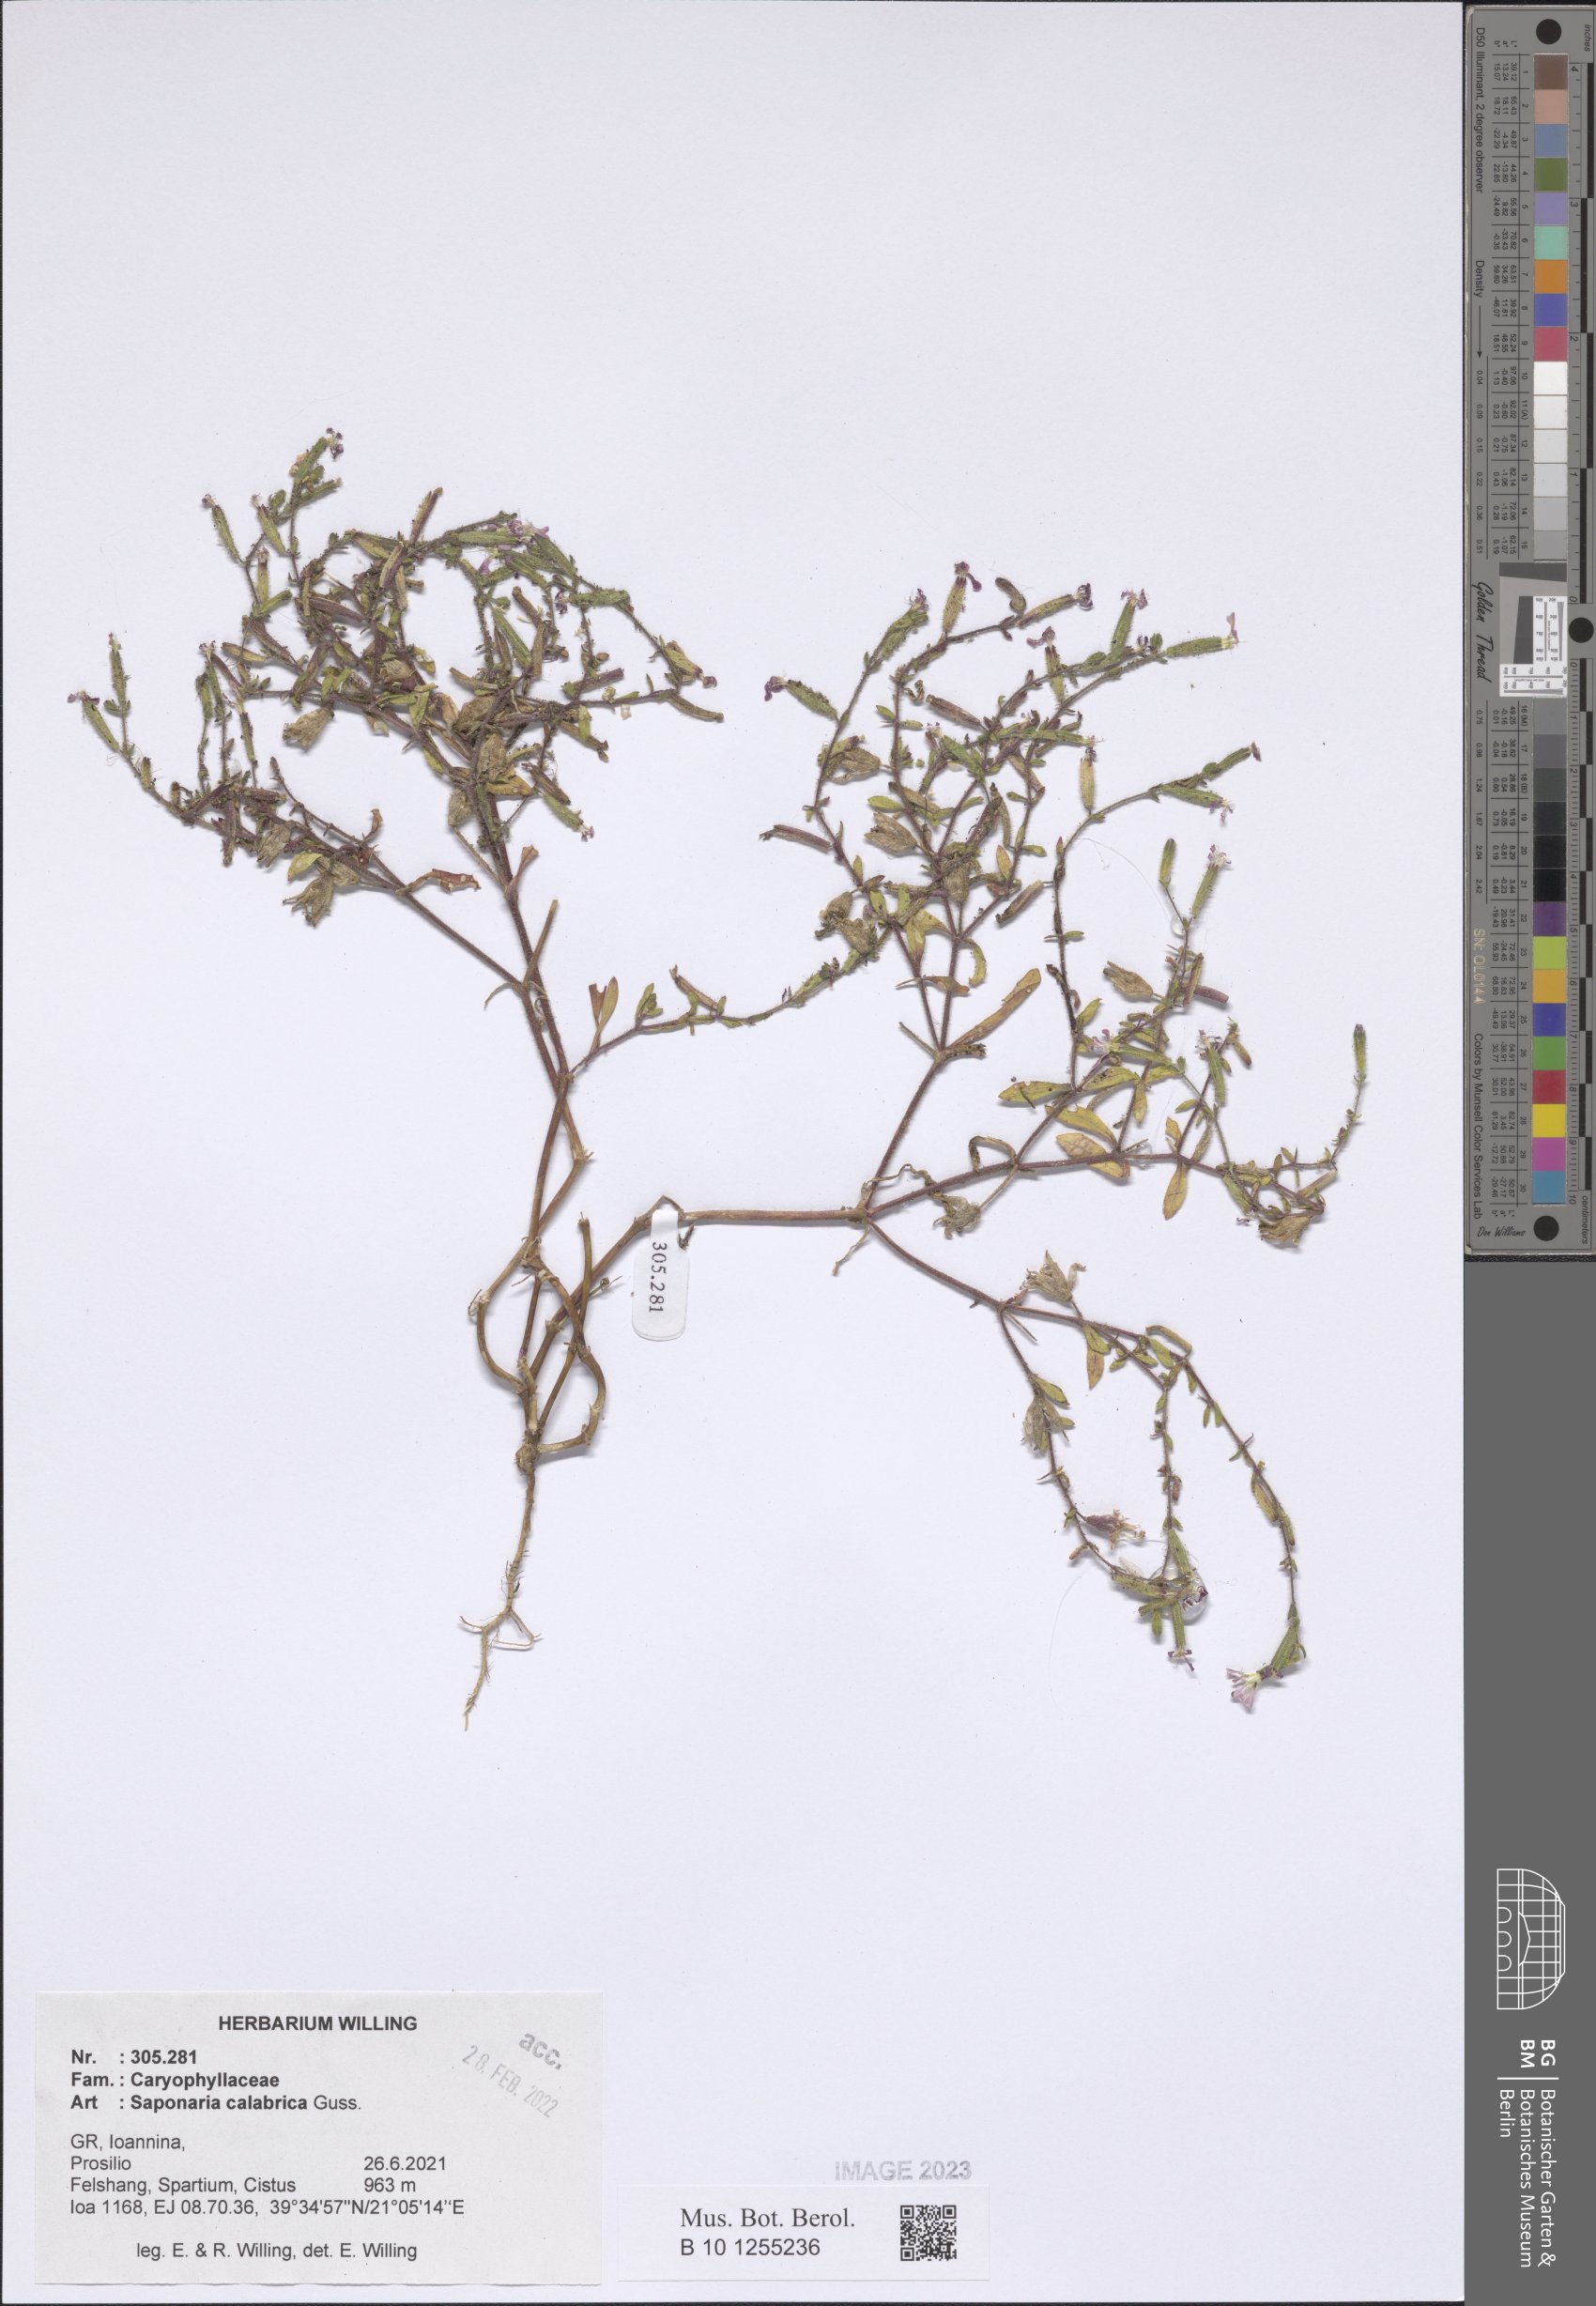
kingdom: Plantae
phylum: Tracheophyta
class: Magnoliopsida
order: Caryophyllales
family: Caryophyllaceae
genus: Saponaria
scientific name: Saponaria calabrica
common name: Adriatic soapwort
